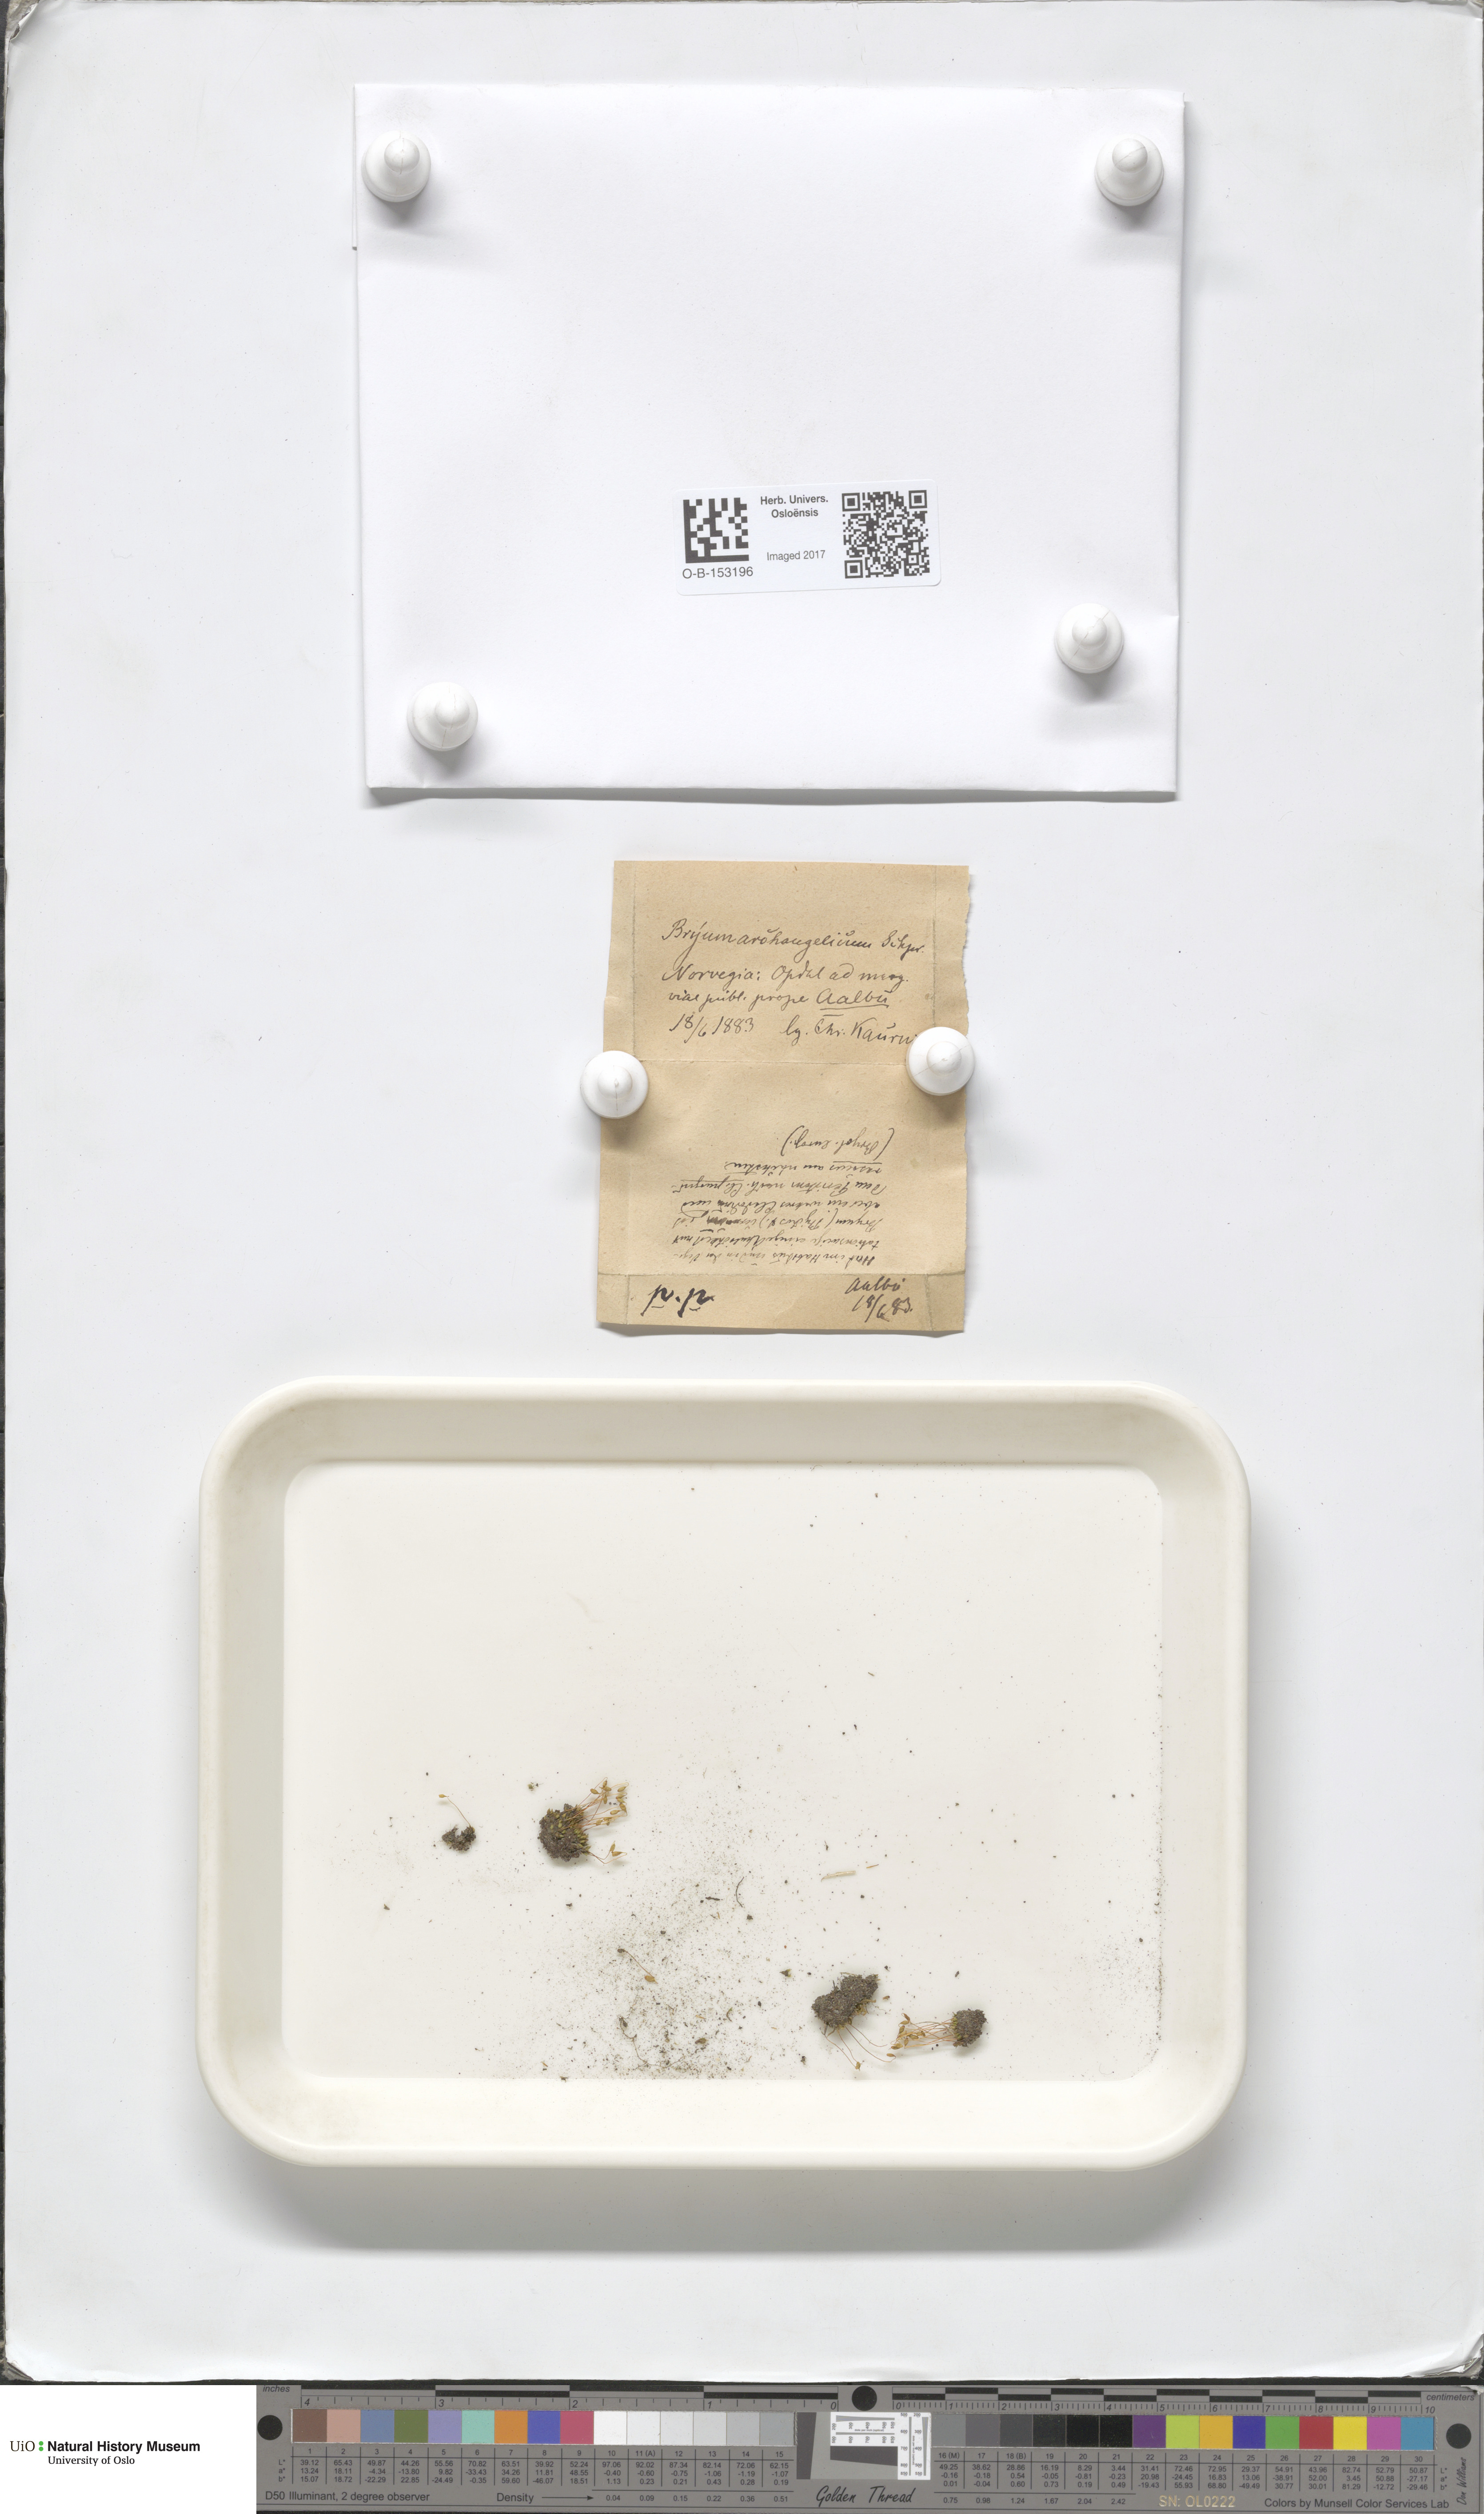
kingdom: Plantae
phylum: Bryophyta
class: Bryopsida
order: Bryales
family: Bryaceae
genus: Ptychostomum
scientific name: Ptychostomum inclinatum
